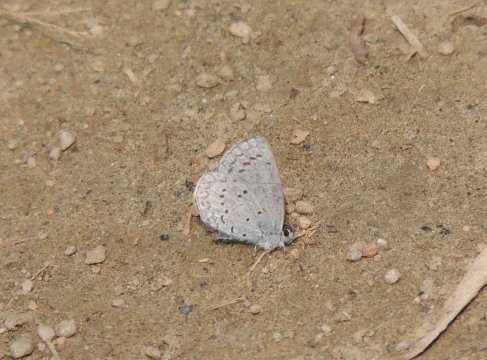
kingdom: Animalia
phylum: Arthropoda
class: Insecta
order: Lepidoptera
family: Lycaenidae
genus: Celastrina
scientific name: Celastrina ladon
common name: Echo Azure
